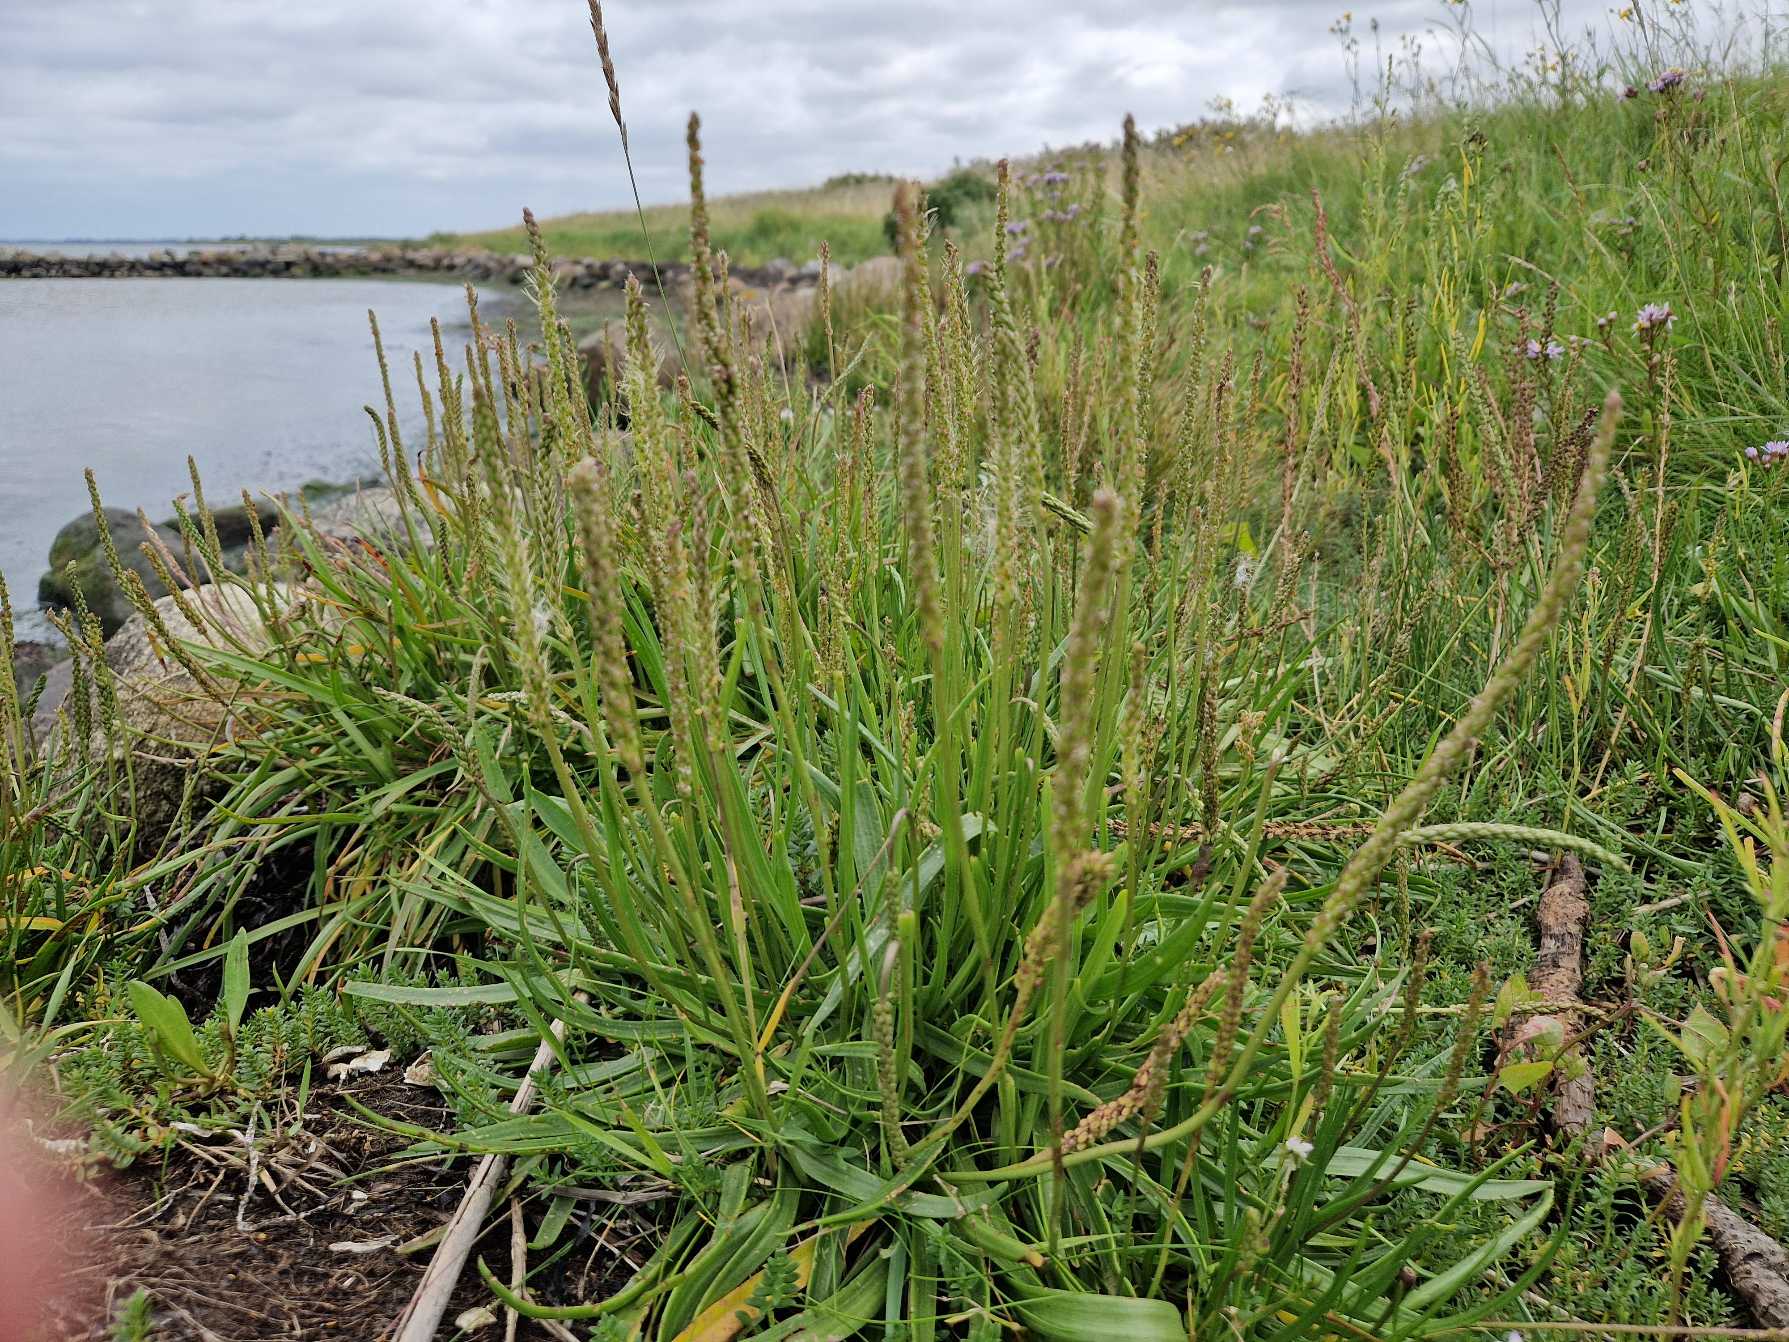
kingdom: Plantae
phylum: Tracheophyta
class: Magnoliopsida
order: Lamiales
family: Plantaginaceae
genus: Plantago
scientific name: Plantago maritima
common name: Strand-vejbred
